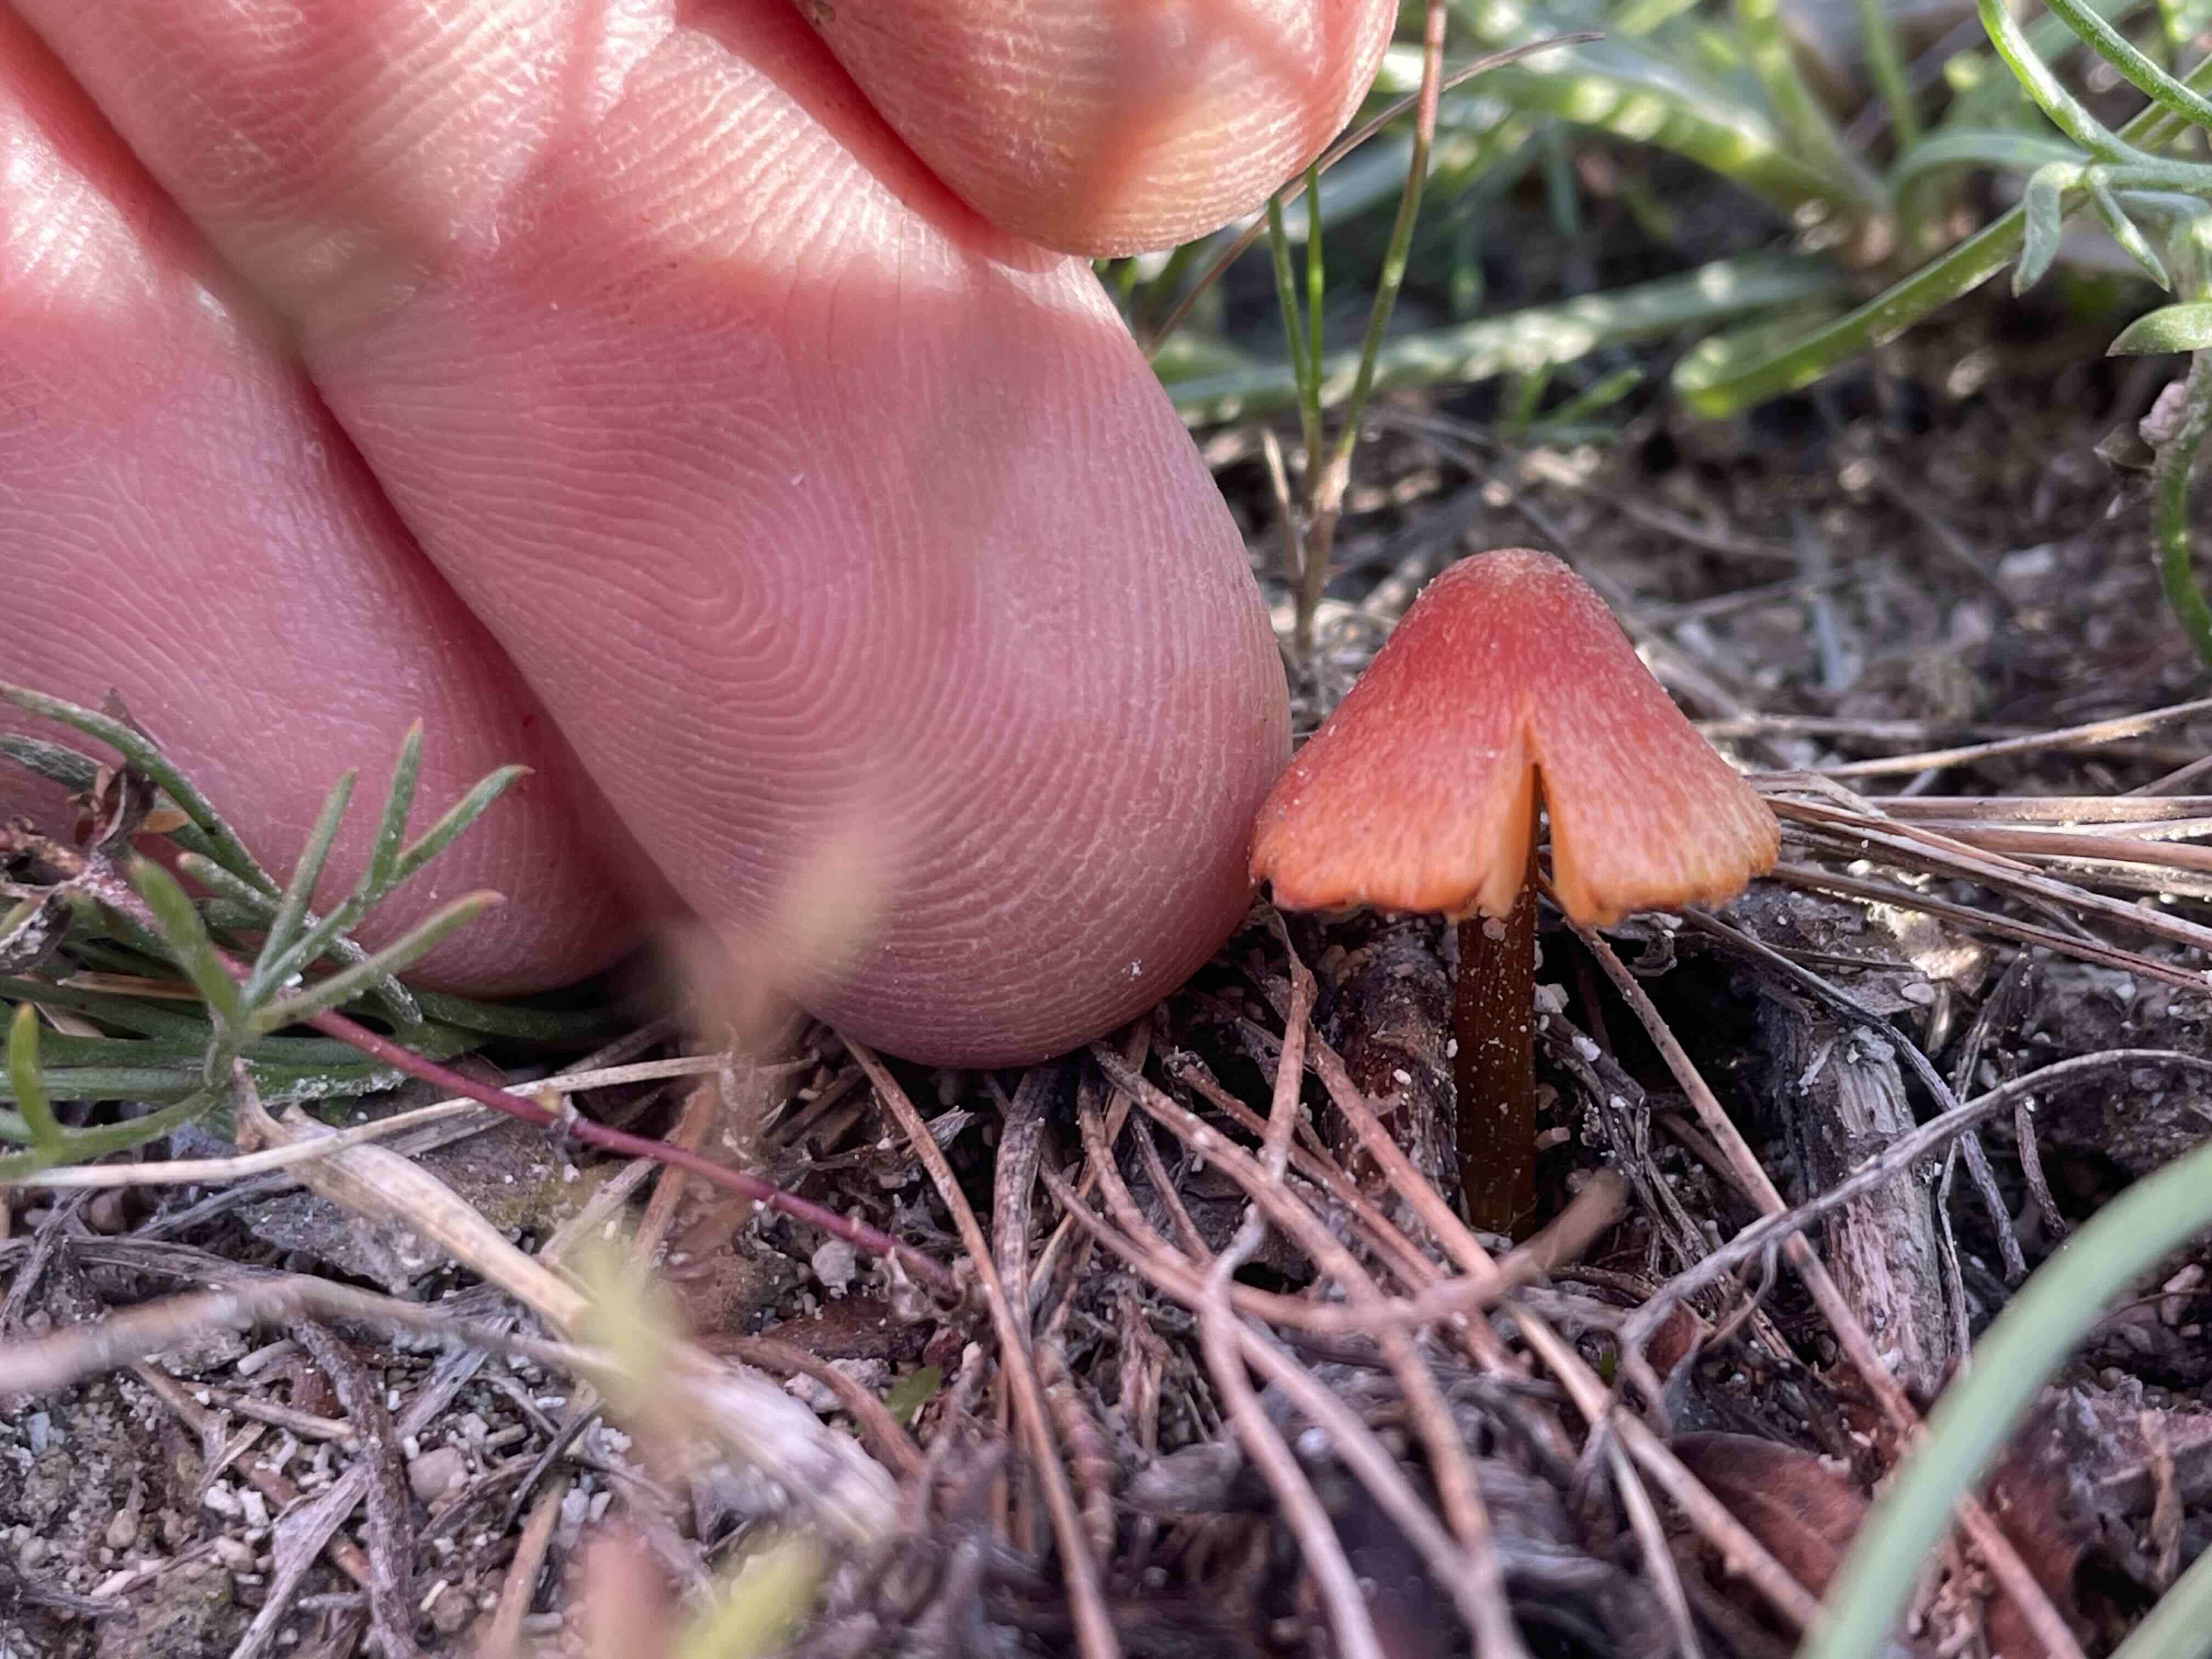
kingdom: Fungi
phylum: Basidiomycota
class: Agaricomycetes
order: Agaricales
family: Hygrophoraceae
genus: Hygrocybe
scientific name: Hygrocybe conica
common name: kegle-vokshat
